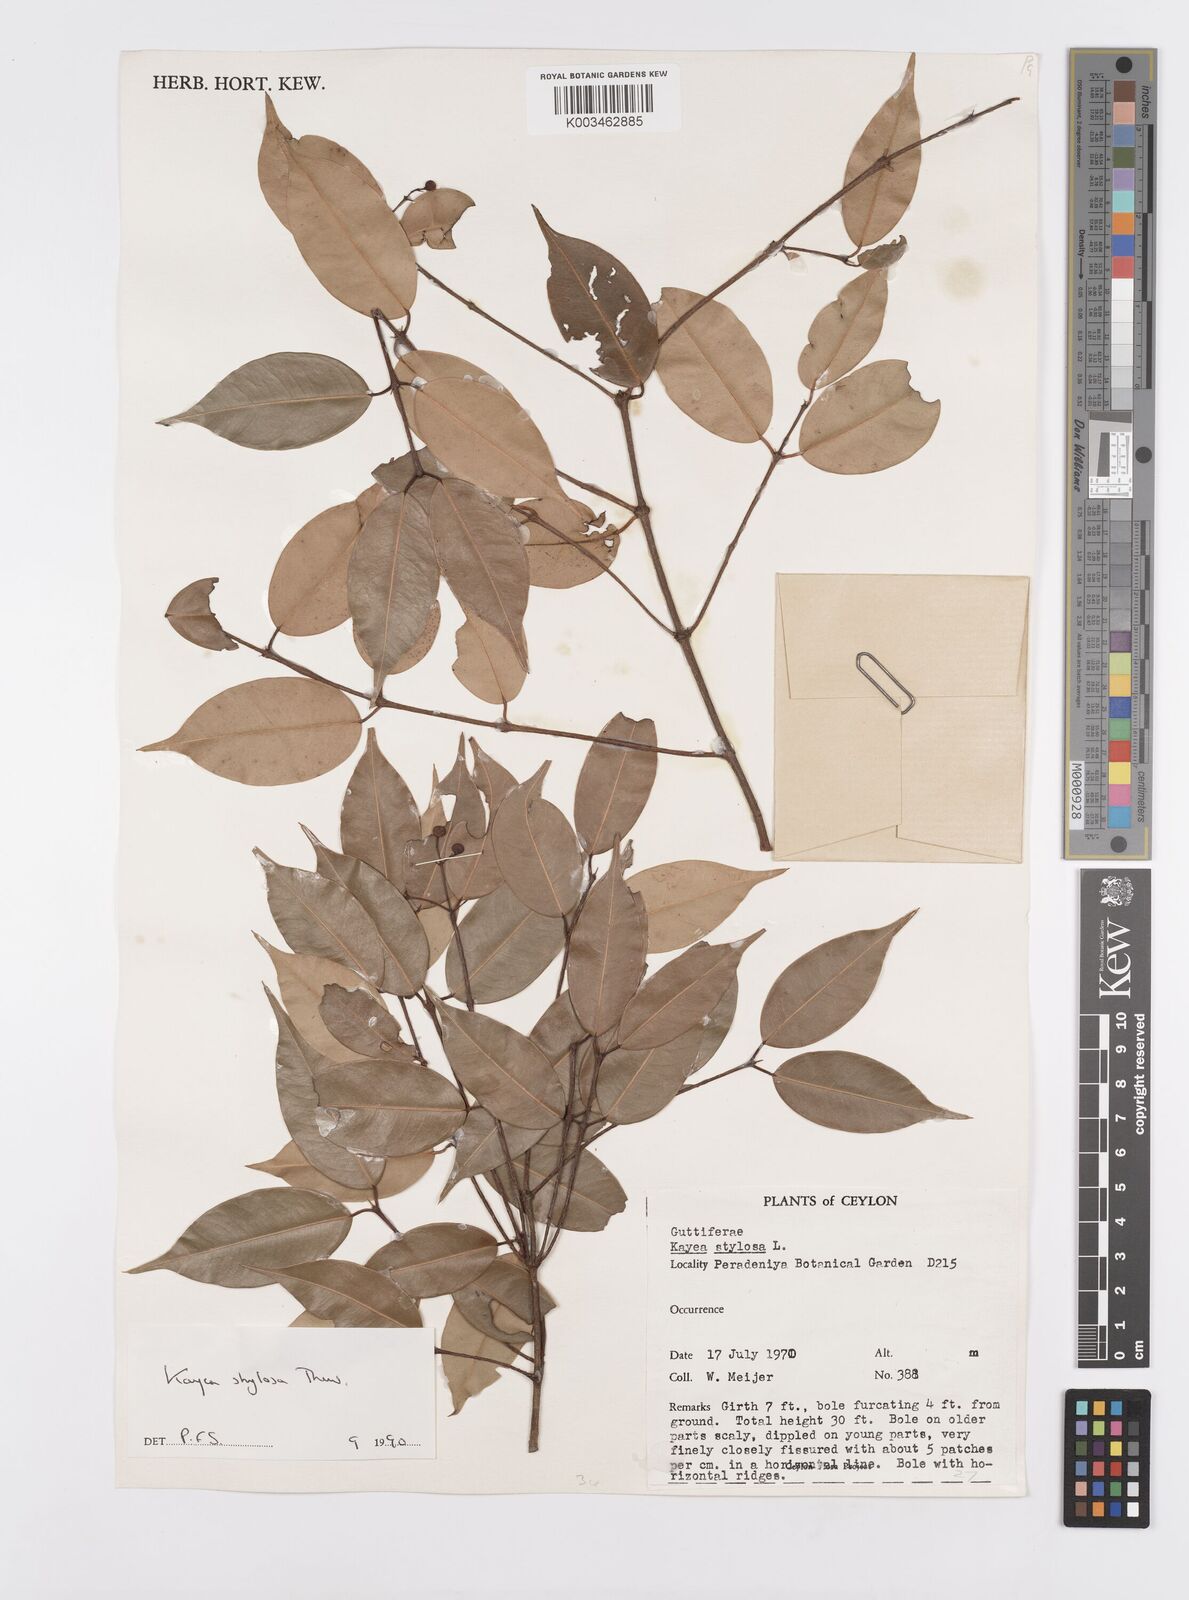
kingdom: Plantae
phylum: Tracheophyta
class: Magnoliopsida
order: Malpighiales
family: Calophyllaceae
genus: Kayea
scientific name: Kayea stylosa
